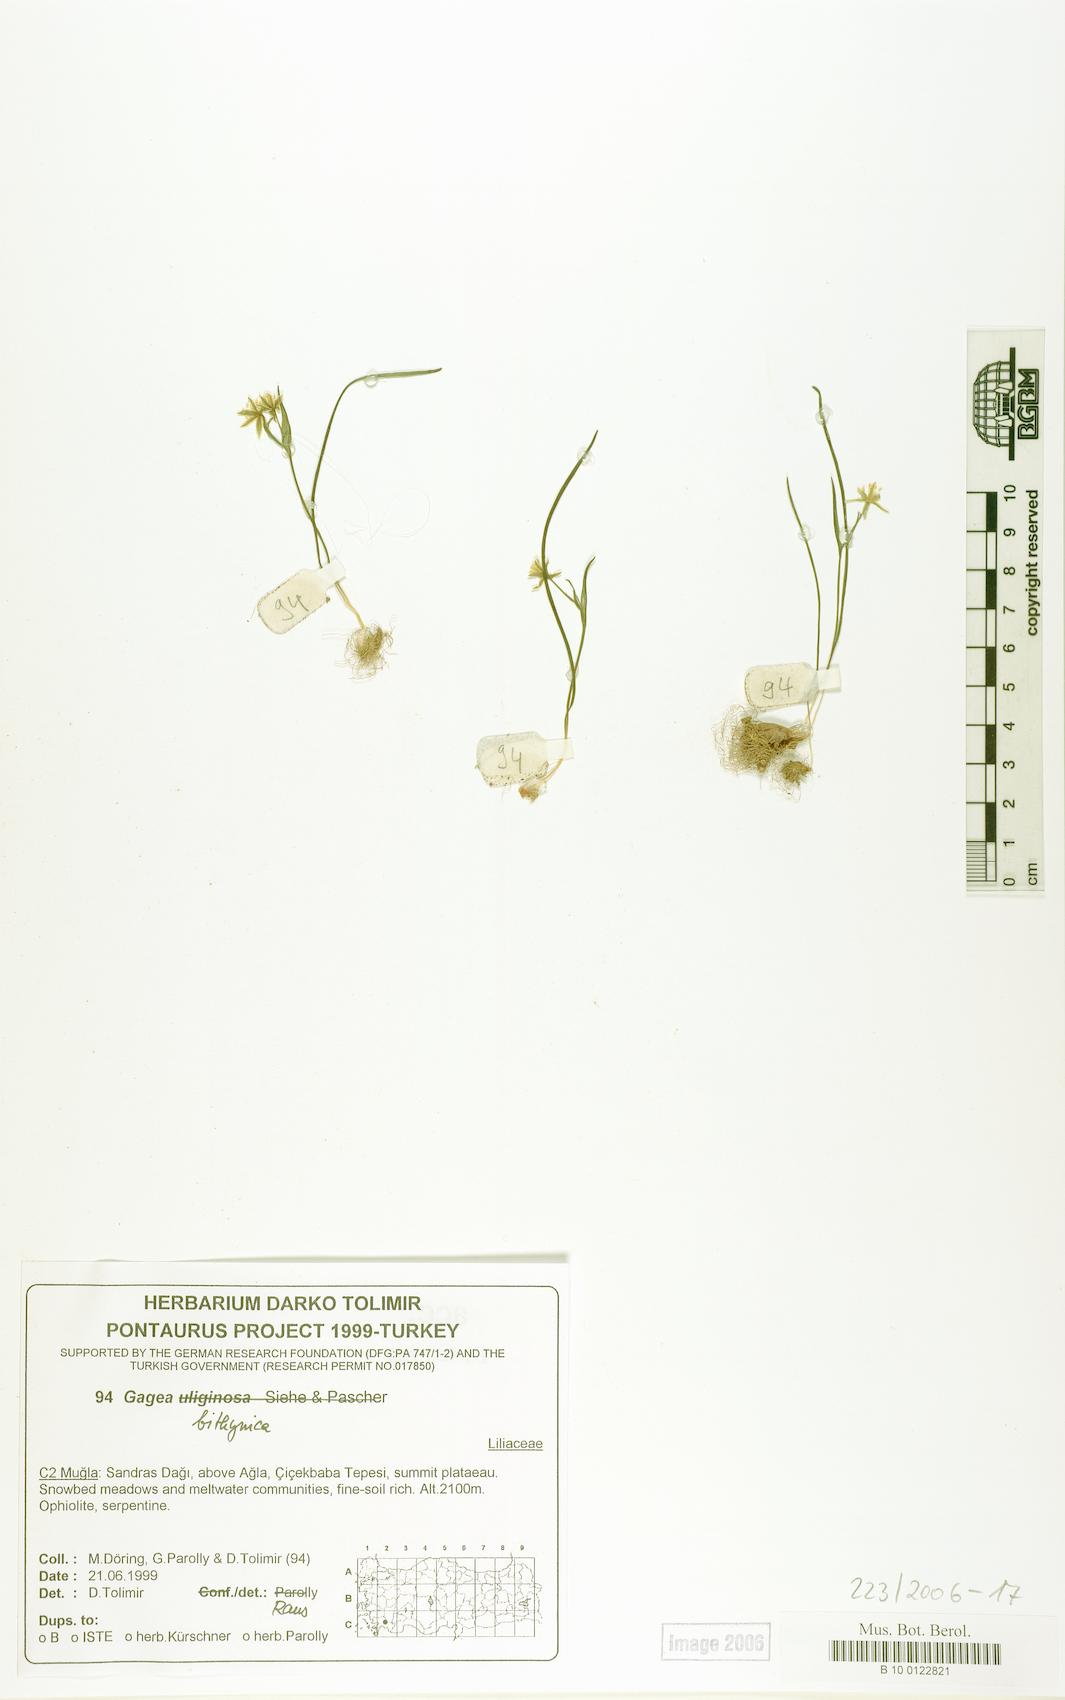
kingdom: Plantae
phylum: Tracheophyta
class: Liliopsida
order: Liliales
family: Liliaceae
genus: Gagea
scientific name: Gagea bithynica
